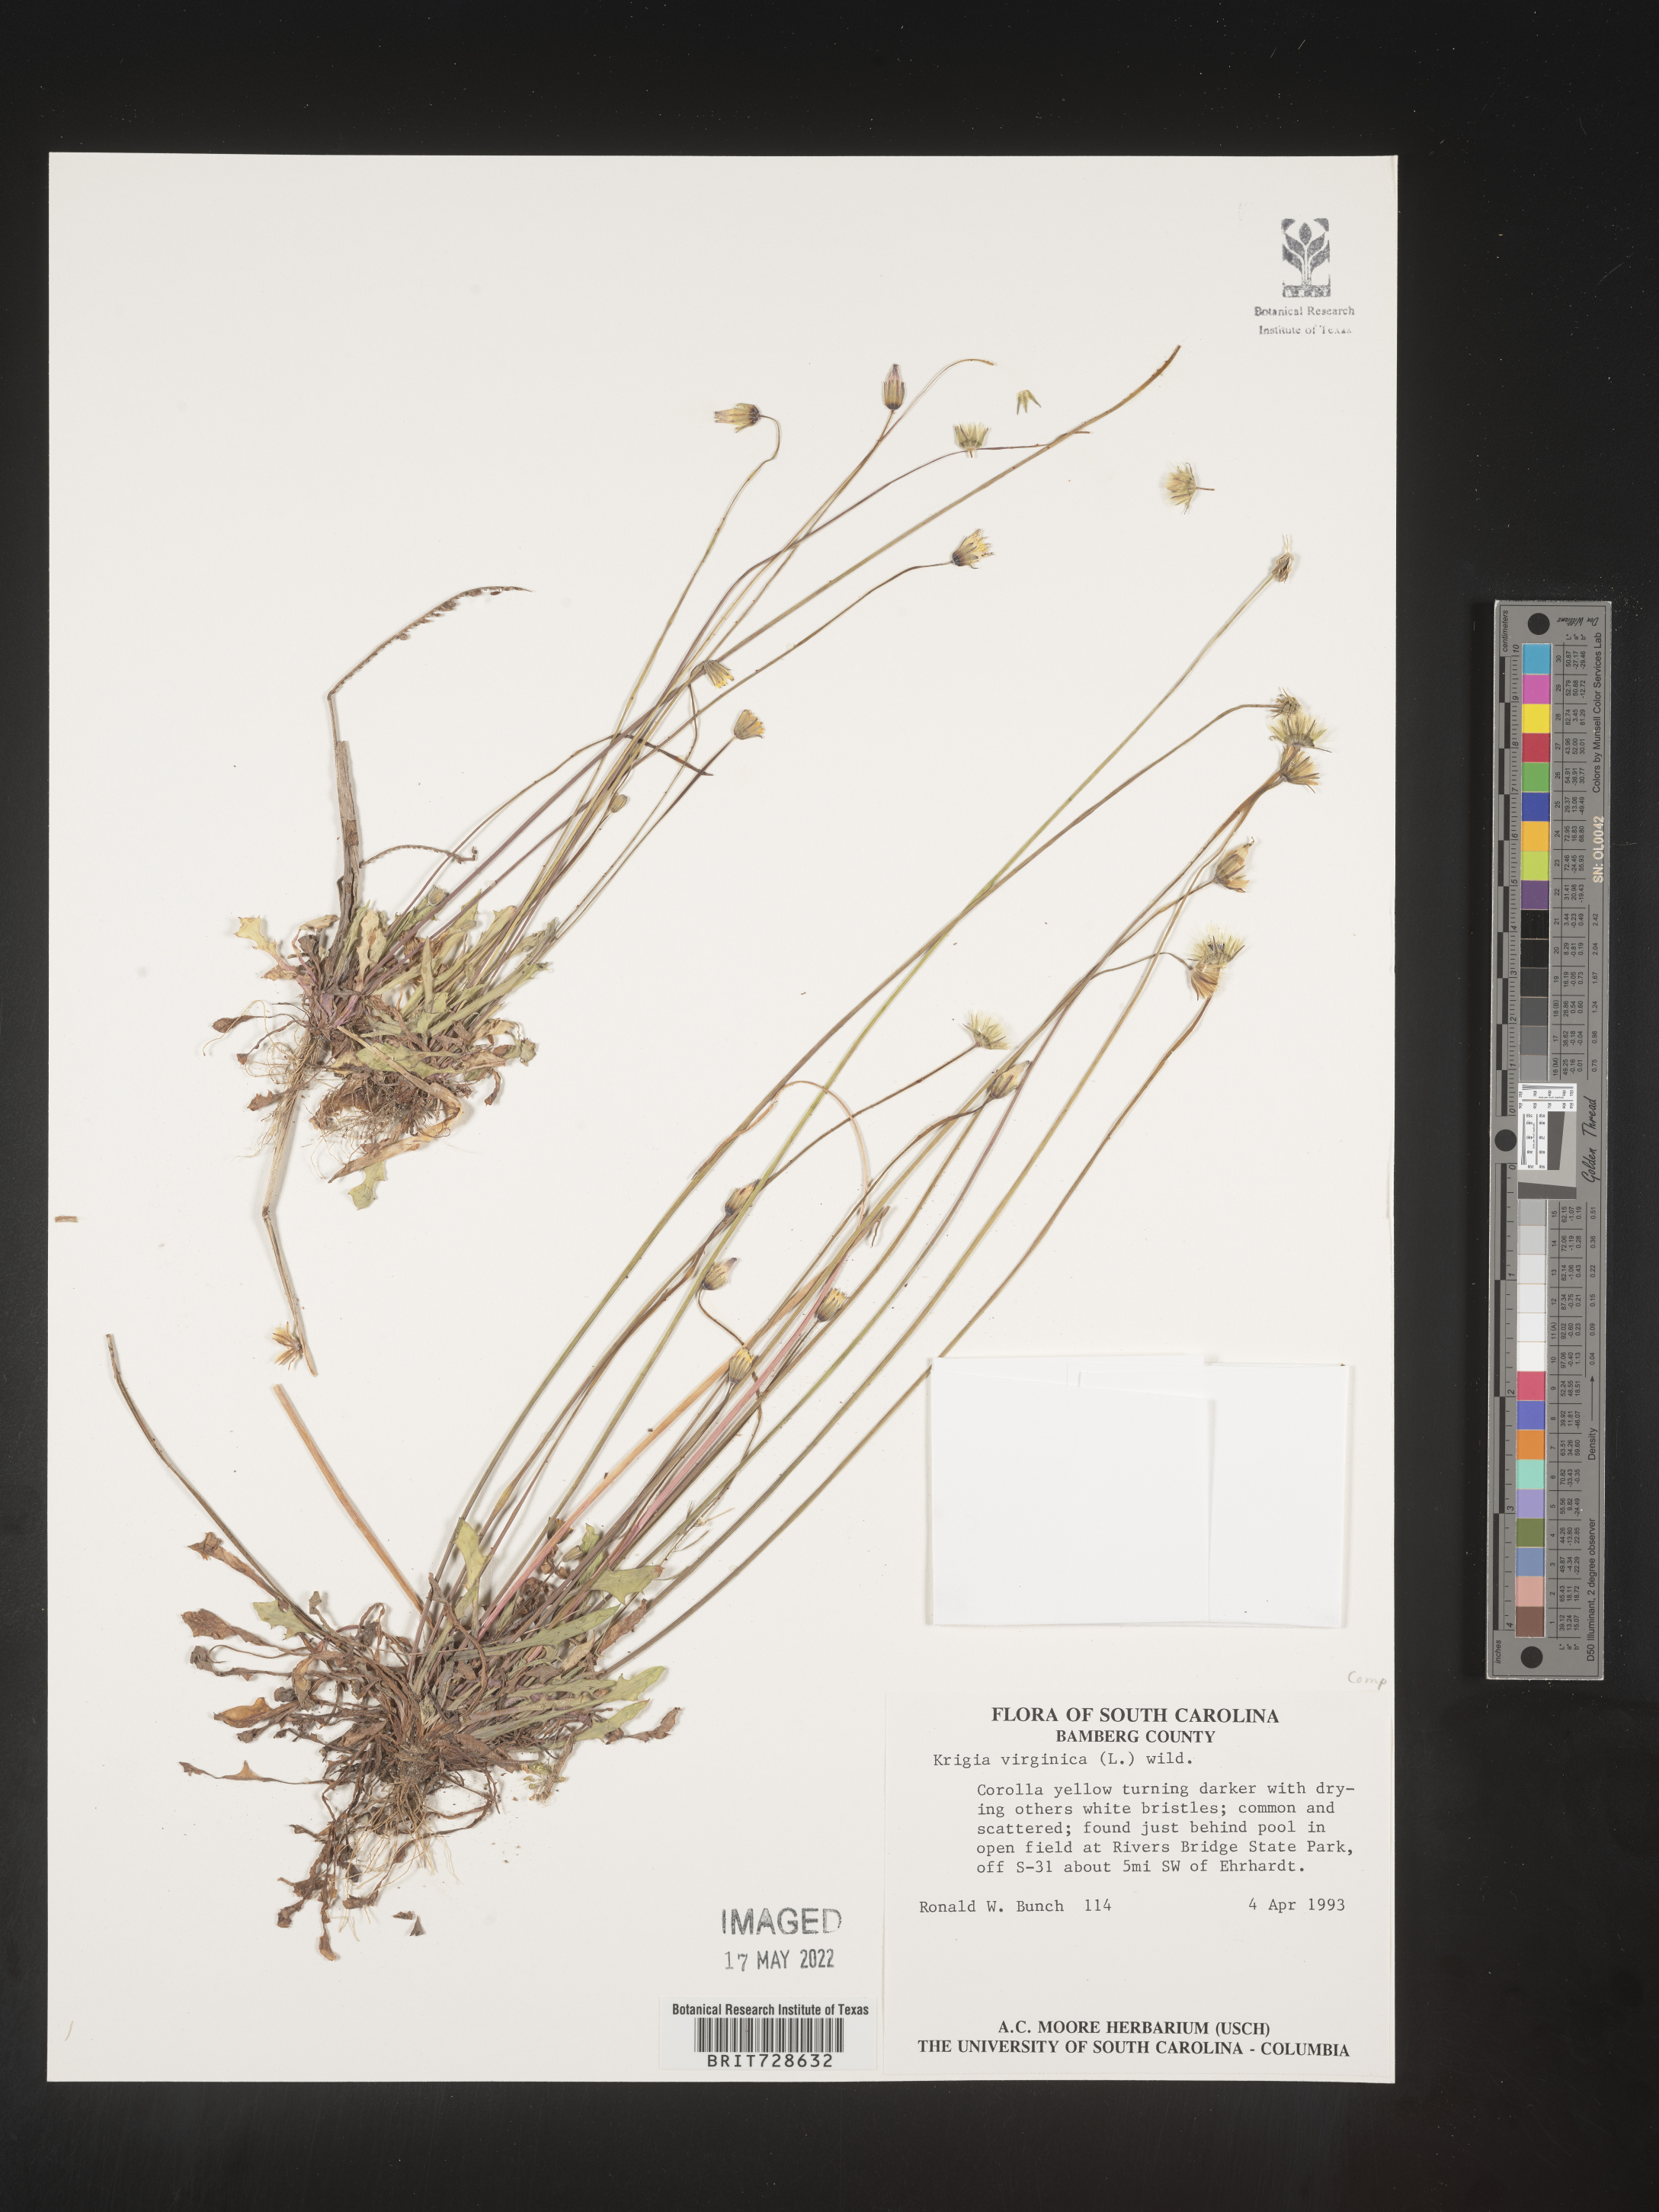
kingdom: Plantae
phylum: Tracheophyta
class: Magnoliopsida
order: Asterales
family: Asteraceae
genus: Krigia
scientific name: Krigia virginica
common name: Virginia dwarf-dandelion
